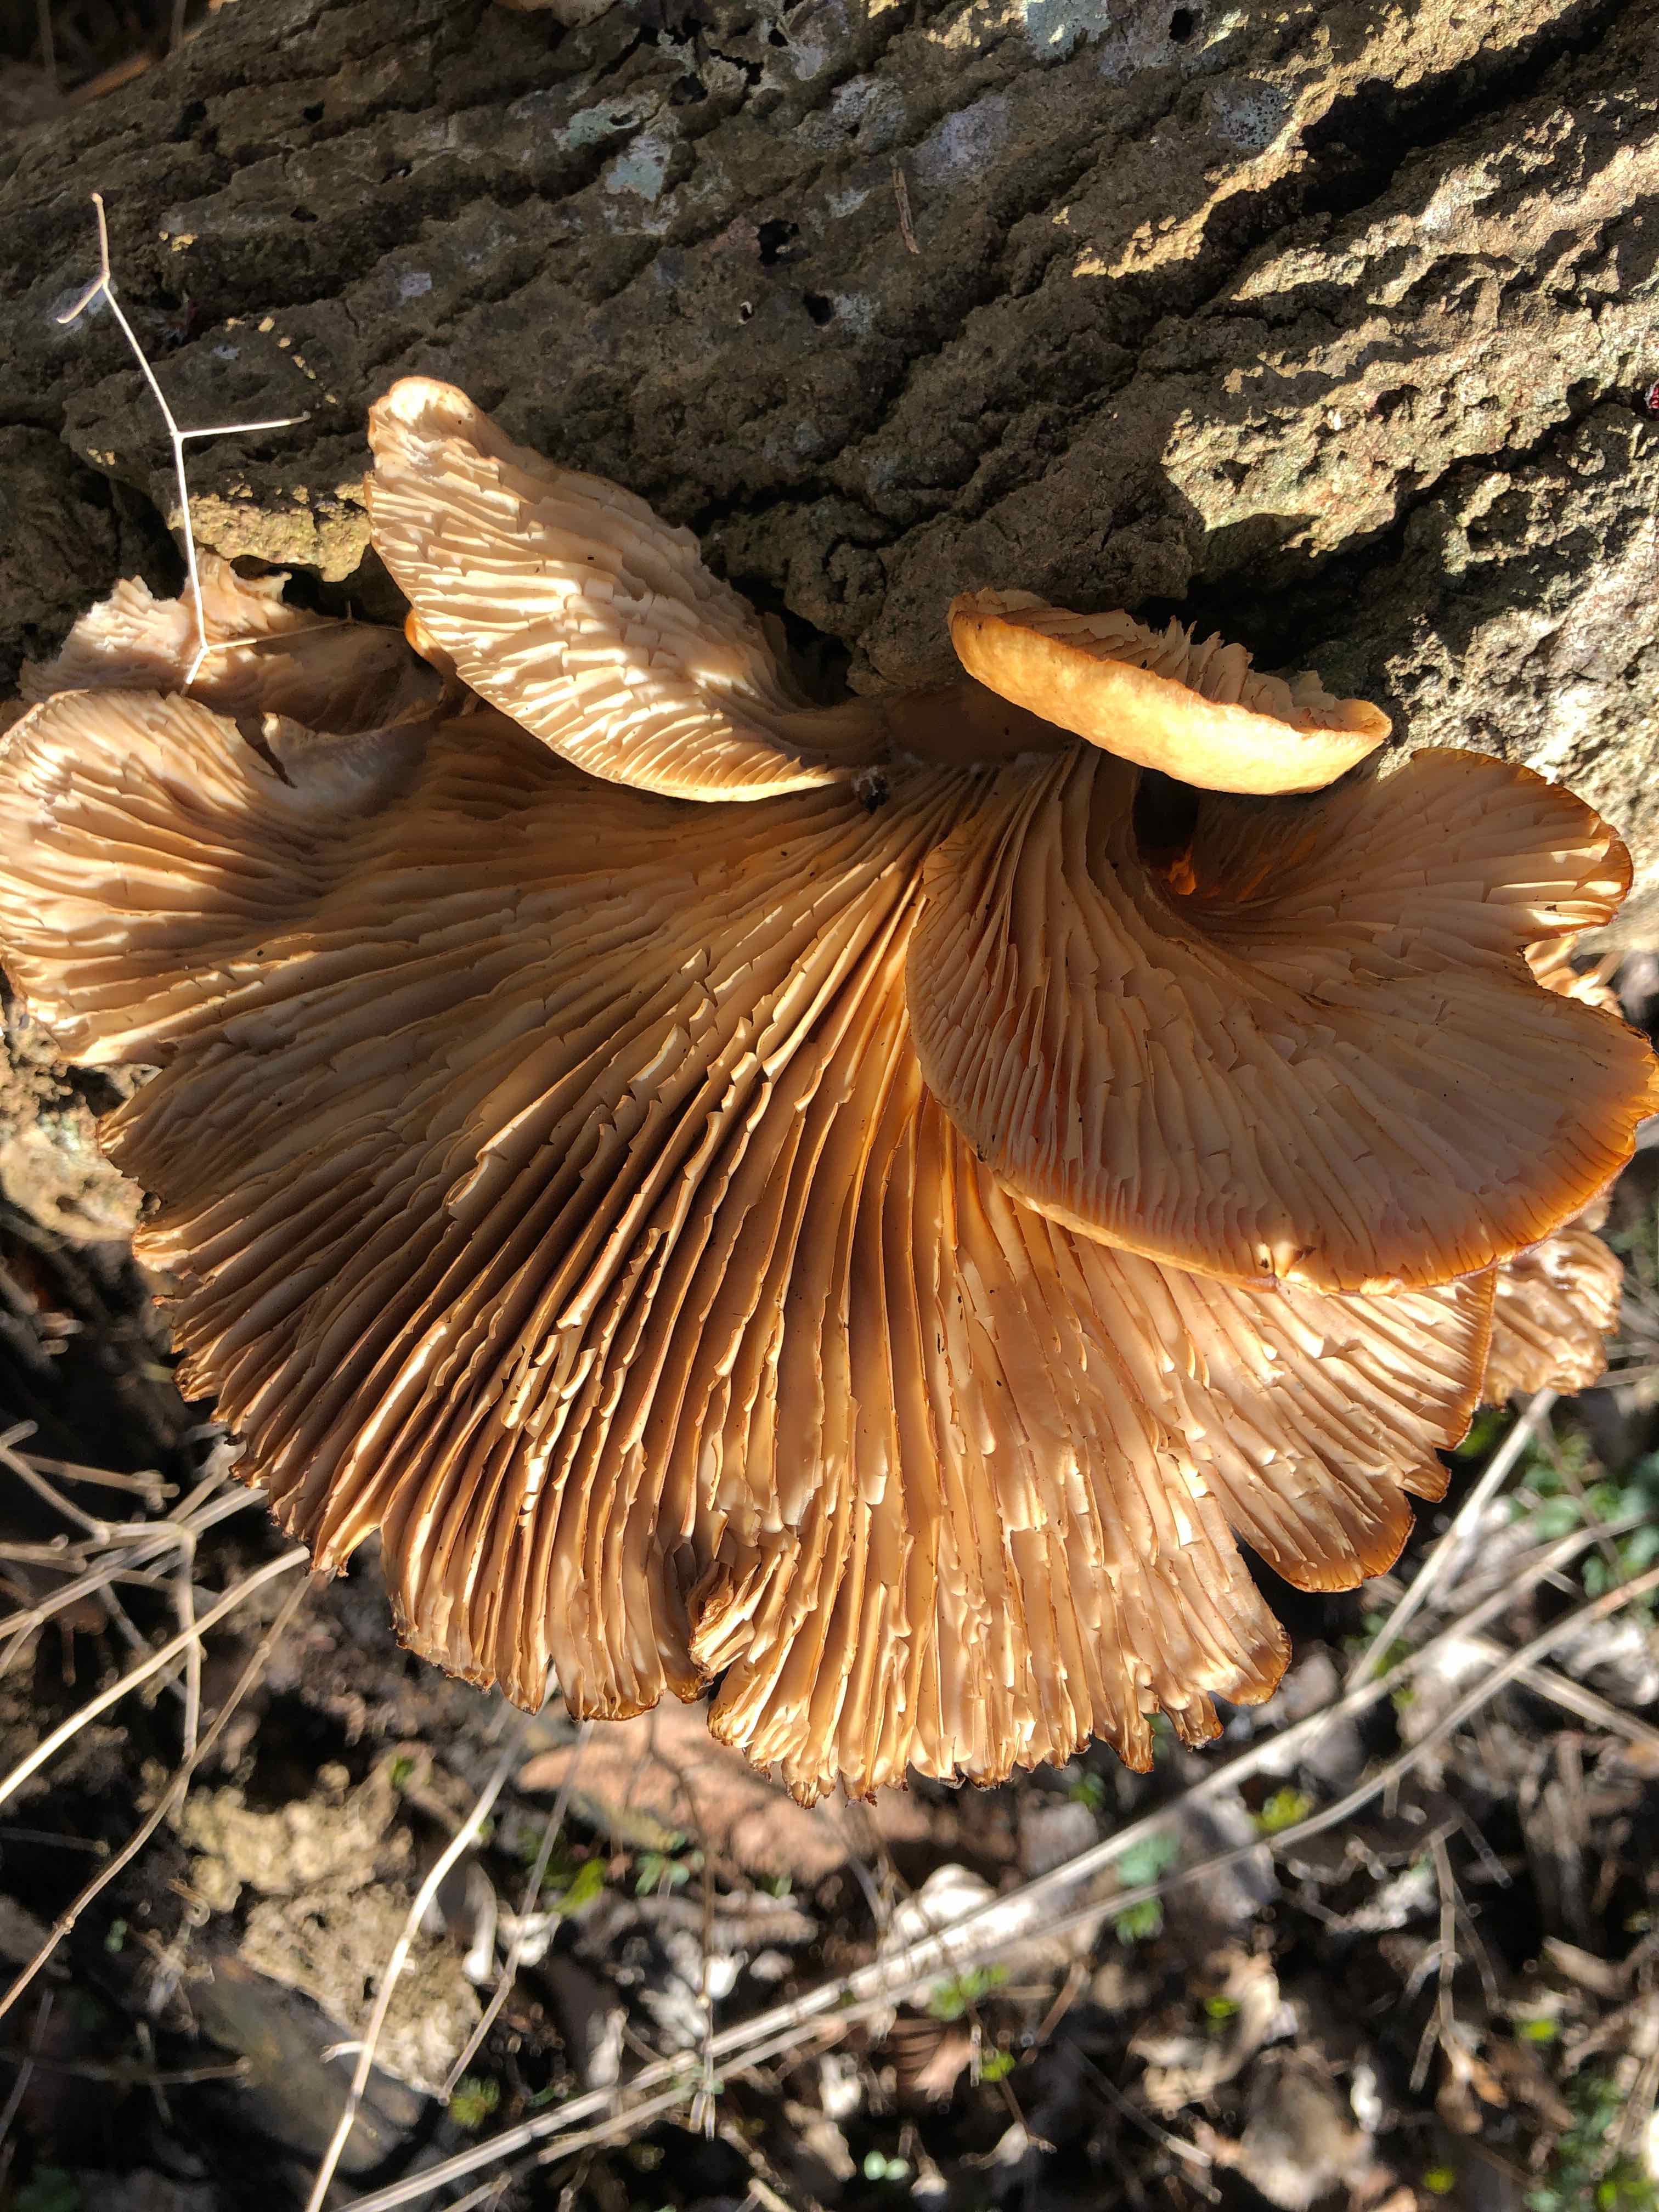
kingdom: Fungi
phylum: Basidiomycota
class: Agaricomycetes
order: Agaricales
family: Pleurotaceae
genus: Pleurotus
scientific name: Pleurotus ostreatus
